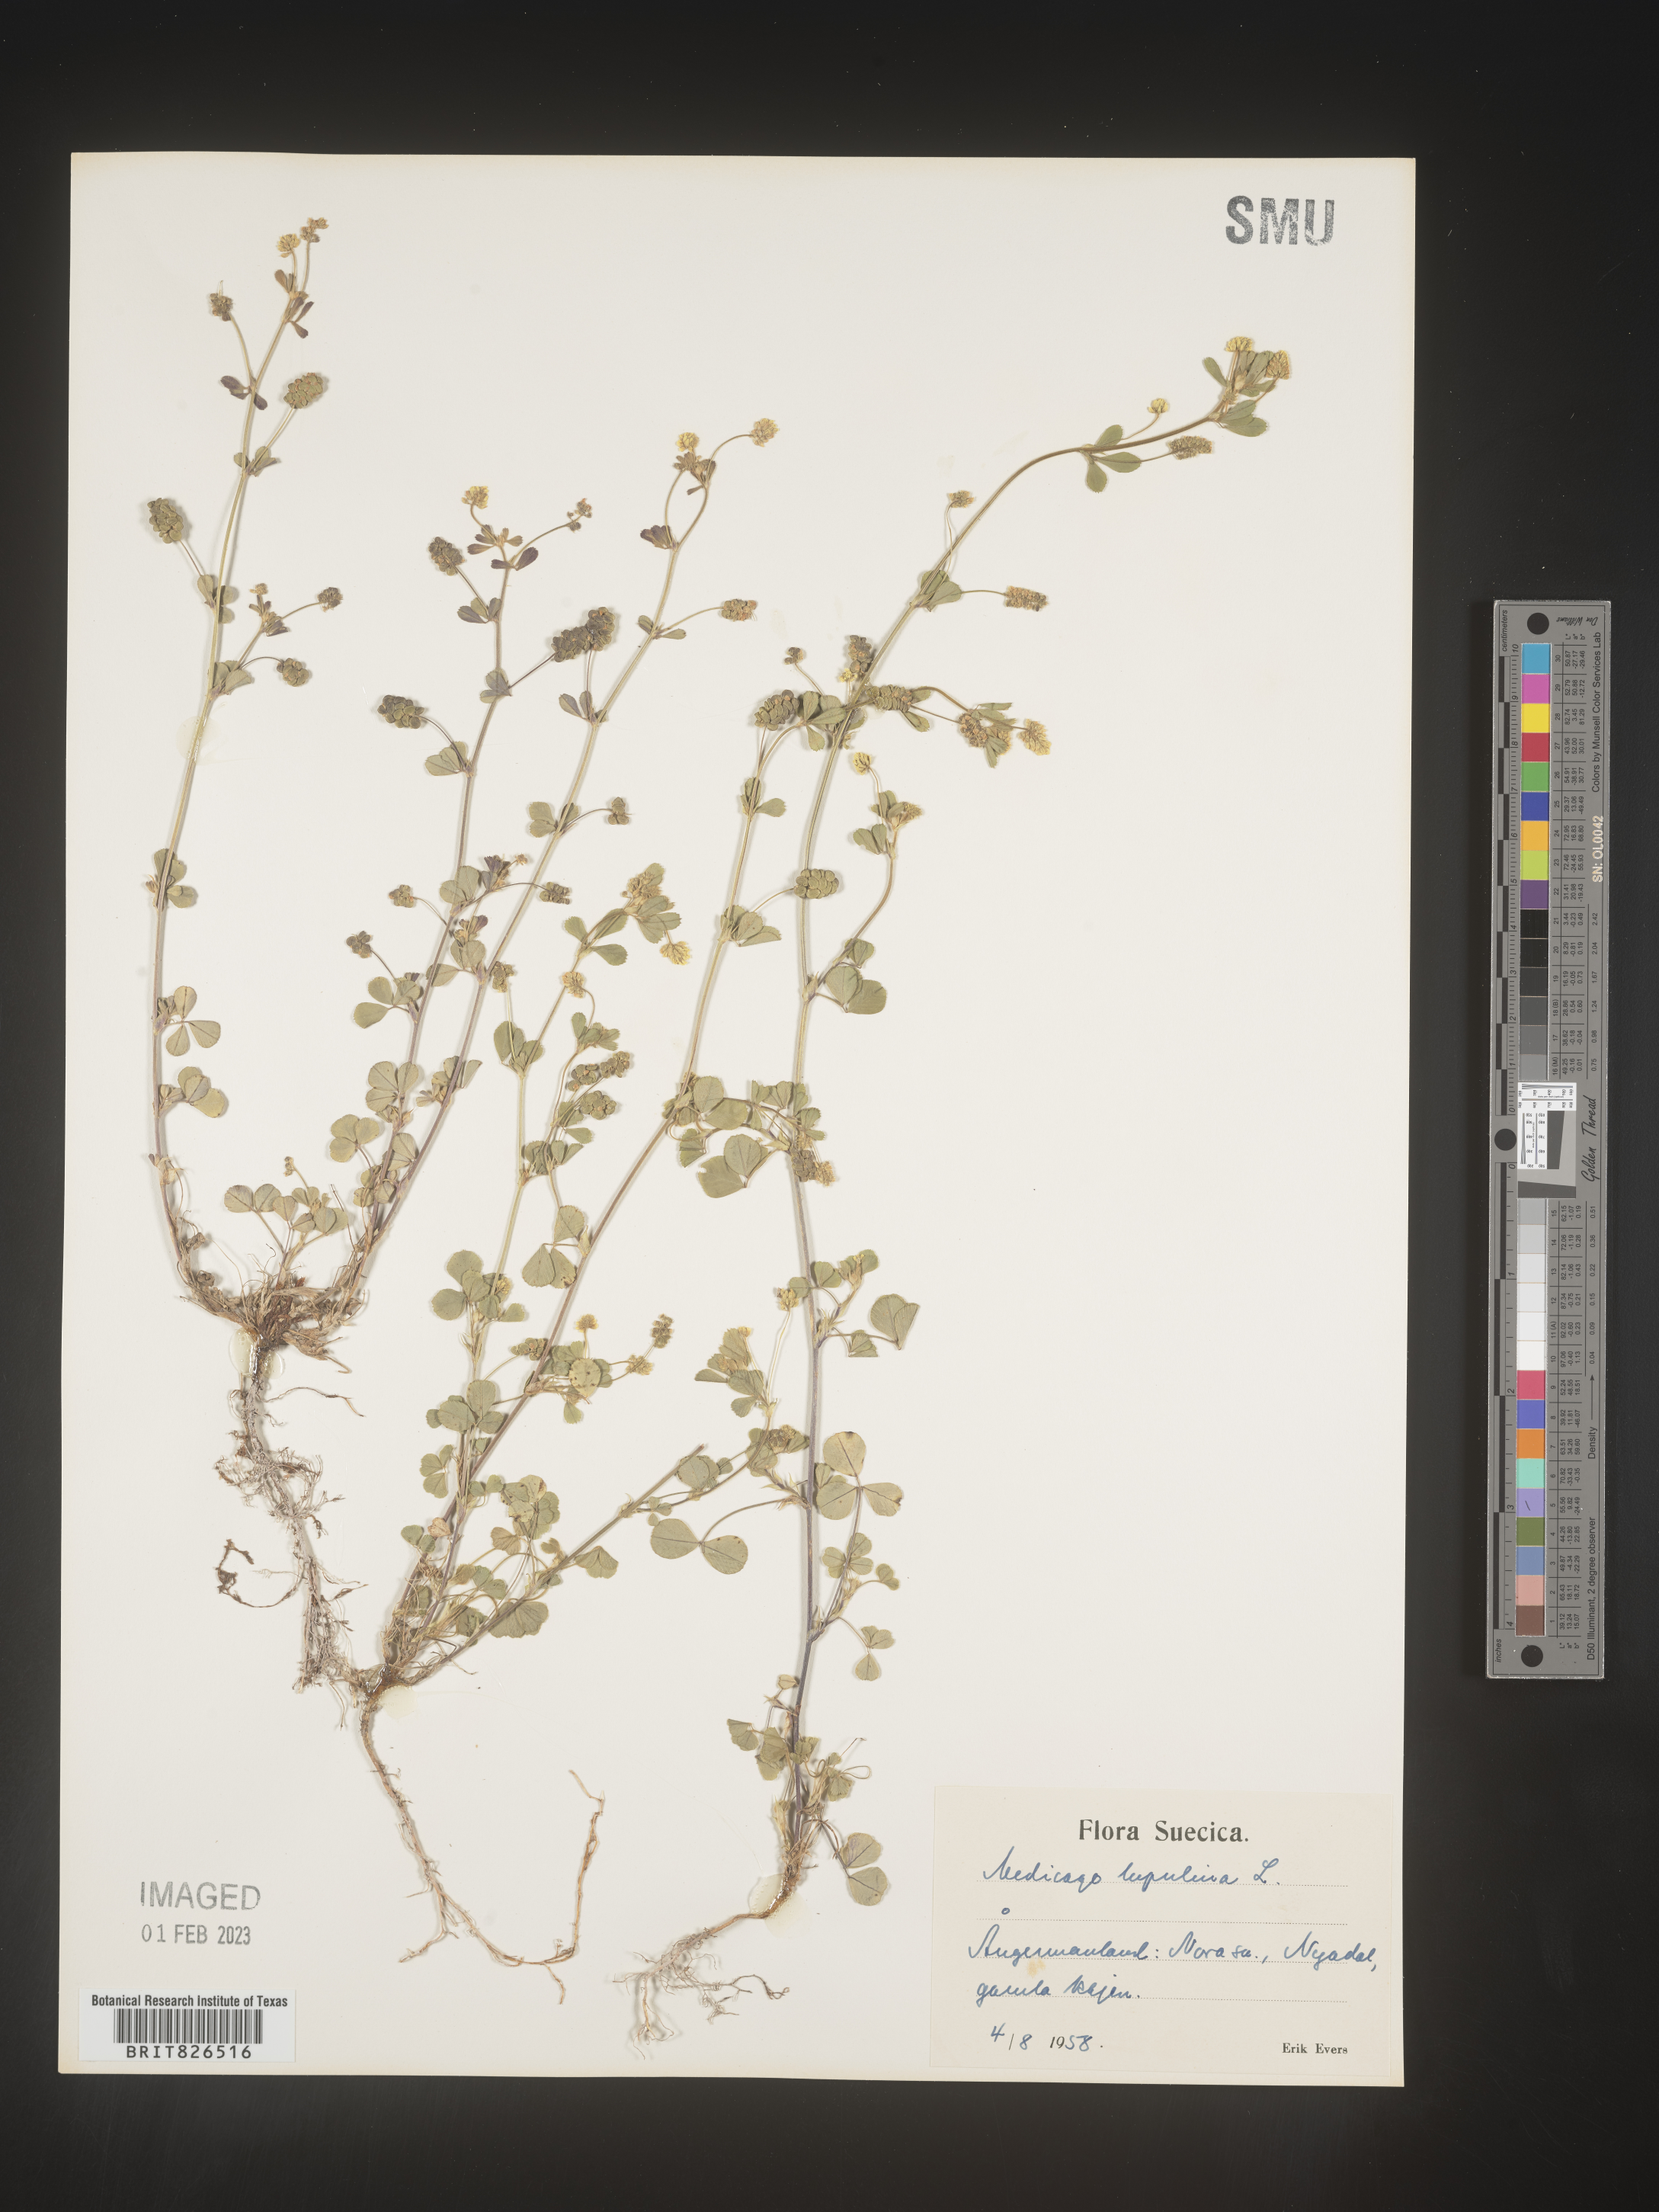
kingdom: Plantae
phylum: Tracheophyta
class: Magnoliopsida
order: Fabales
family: Fabaceae
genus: Medicago
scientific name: Medicago
